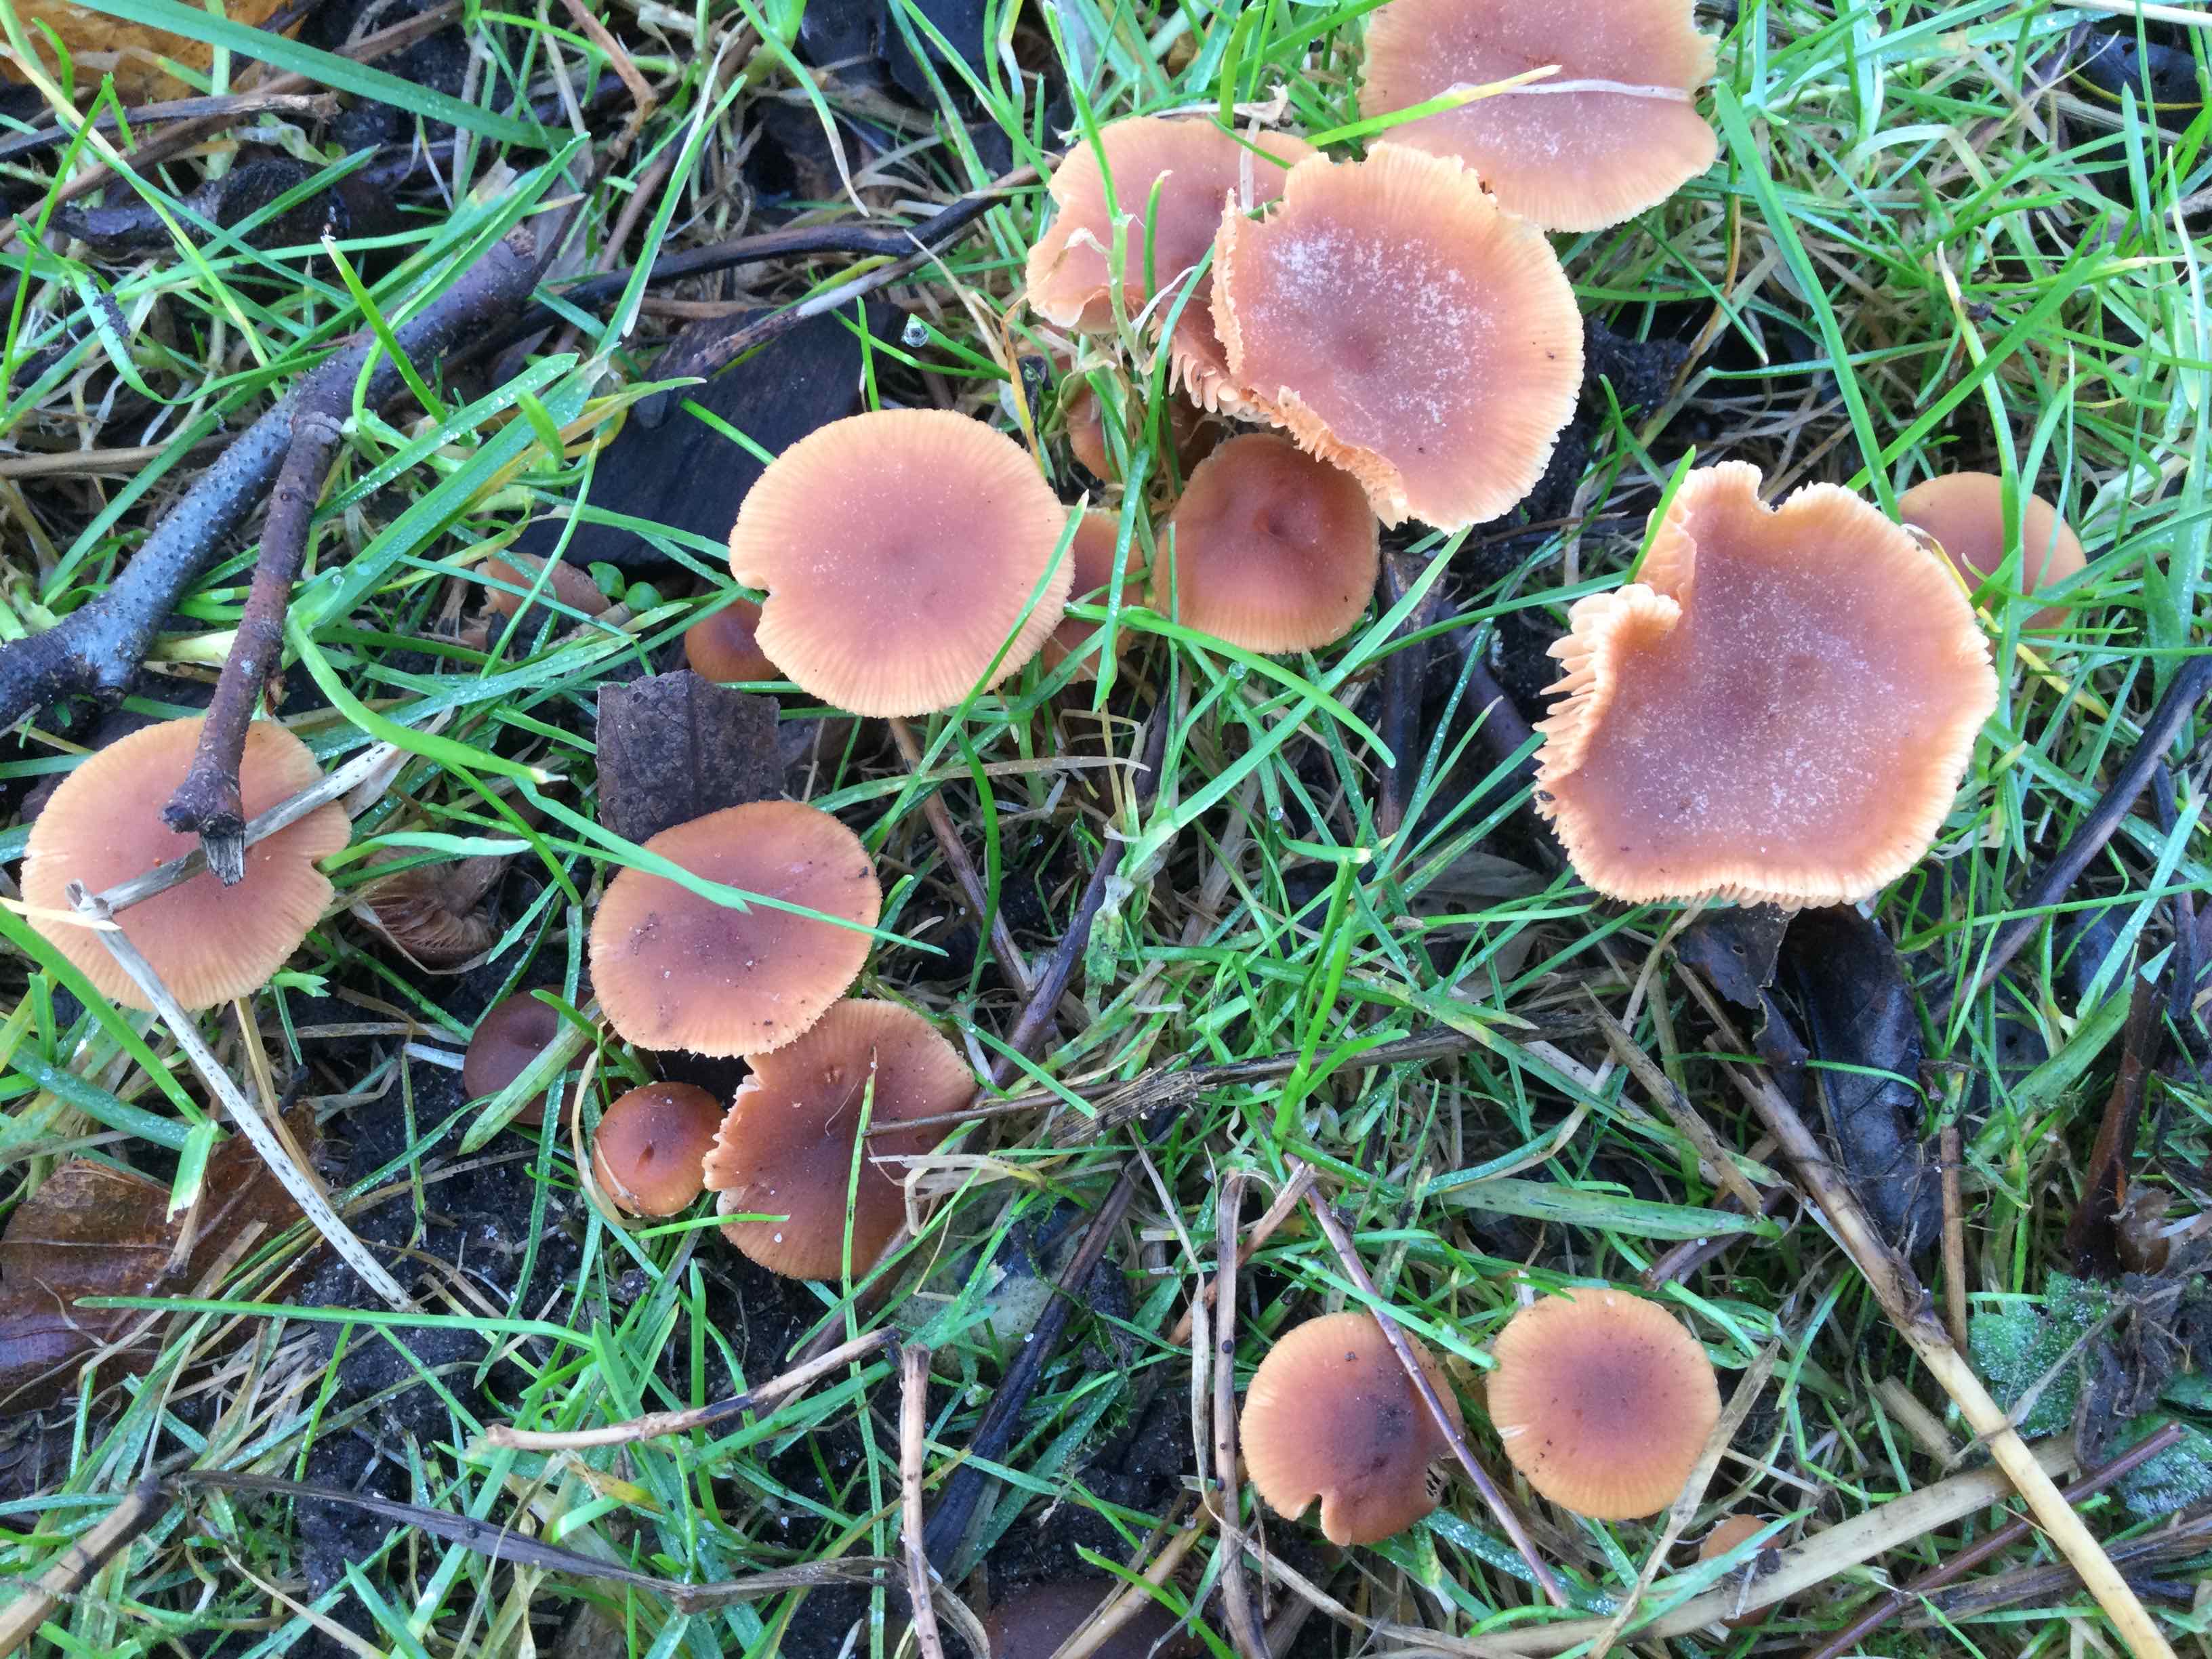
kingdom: Fungi
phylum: Basidiomycota
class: Agaricomycetes
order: Agaricales
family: Tubariaceae
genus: Tubaria
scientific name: Tubaria furfuracea
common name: kliddet fnughat
